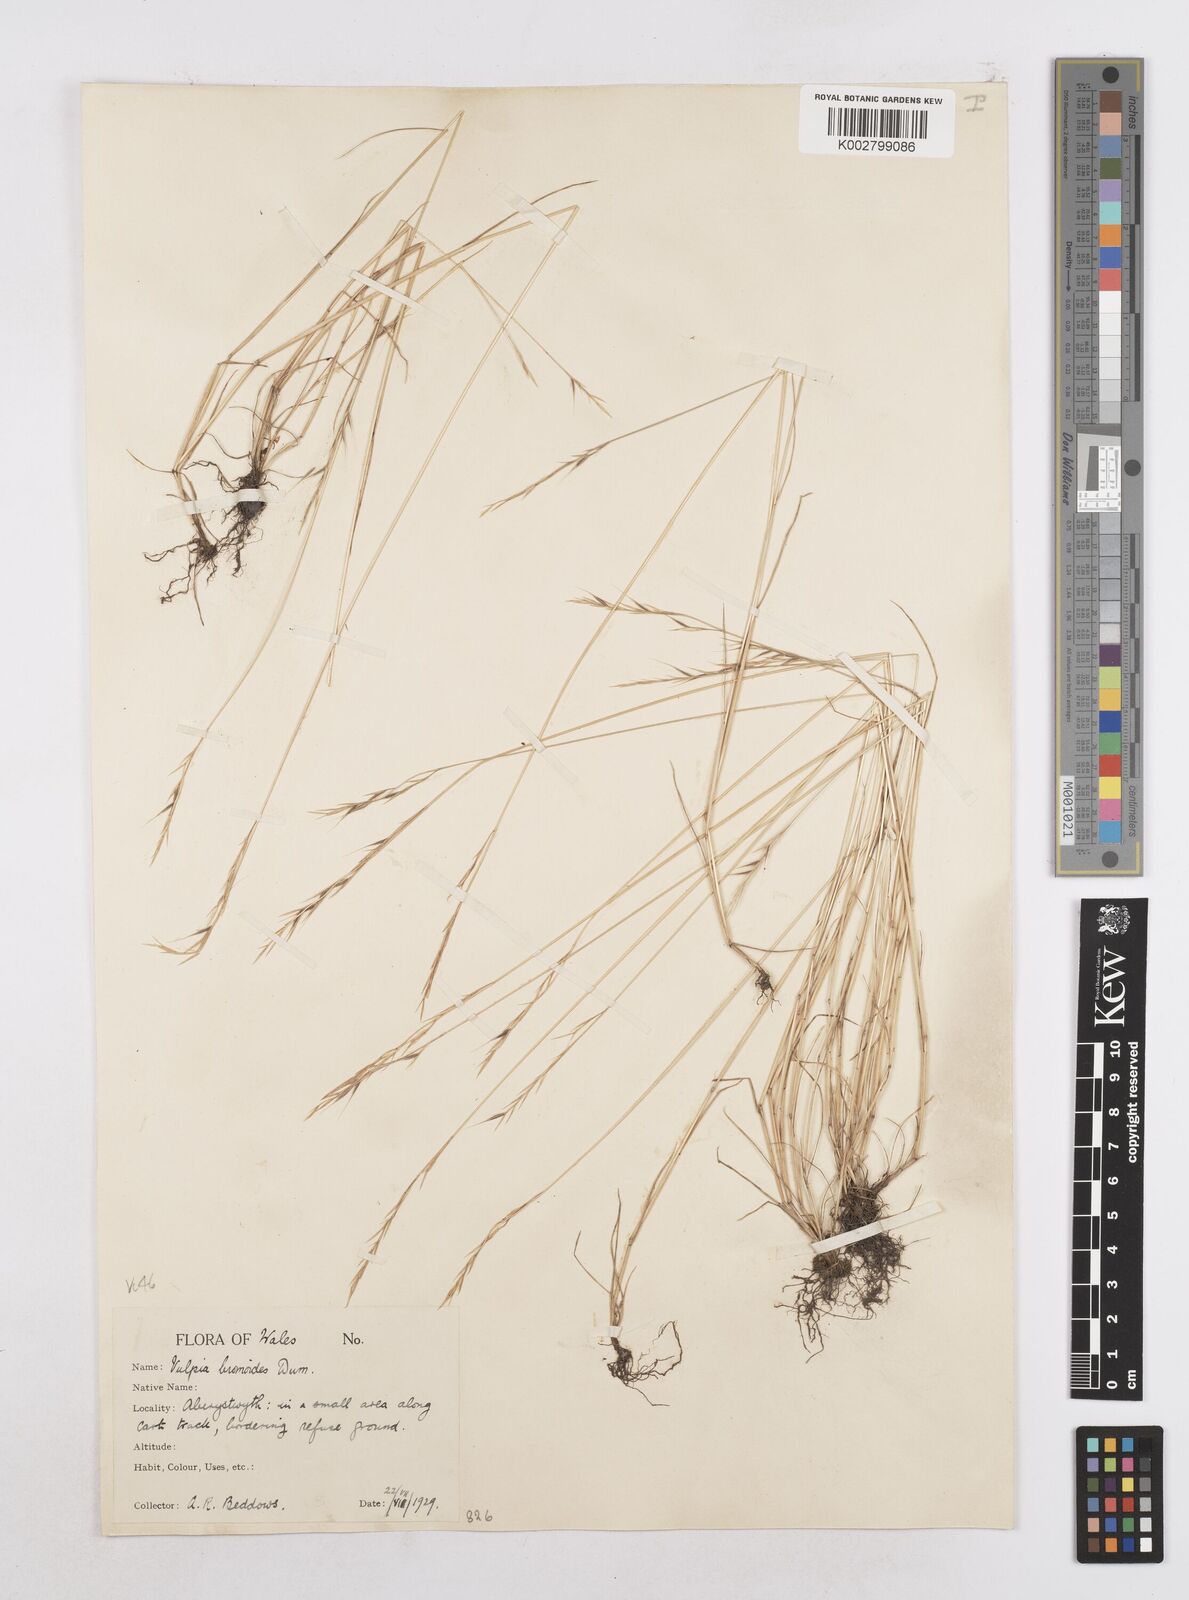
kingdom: Plantae
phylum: Tracheophyta
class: Liliopsida
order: Poales
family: Poaceae
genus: Festuca
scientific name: Festuca bromoides
